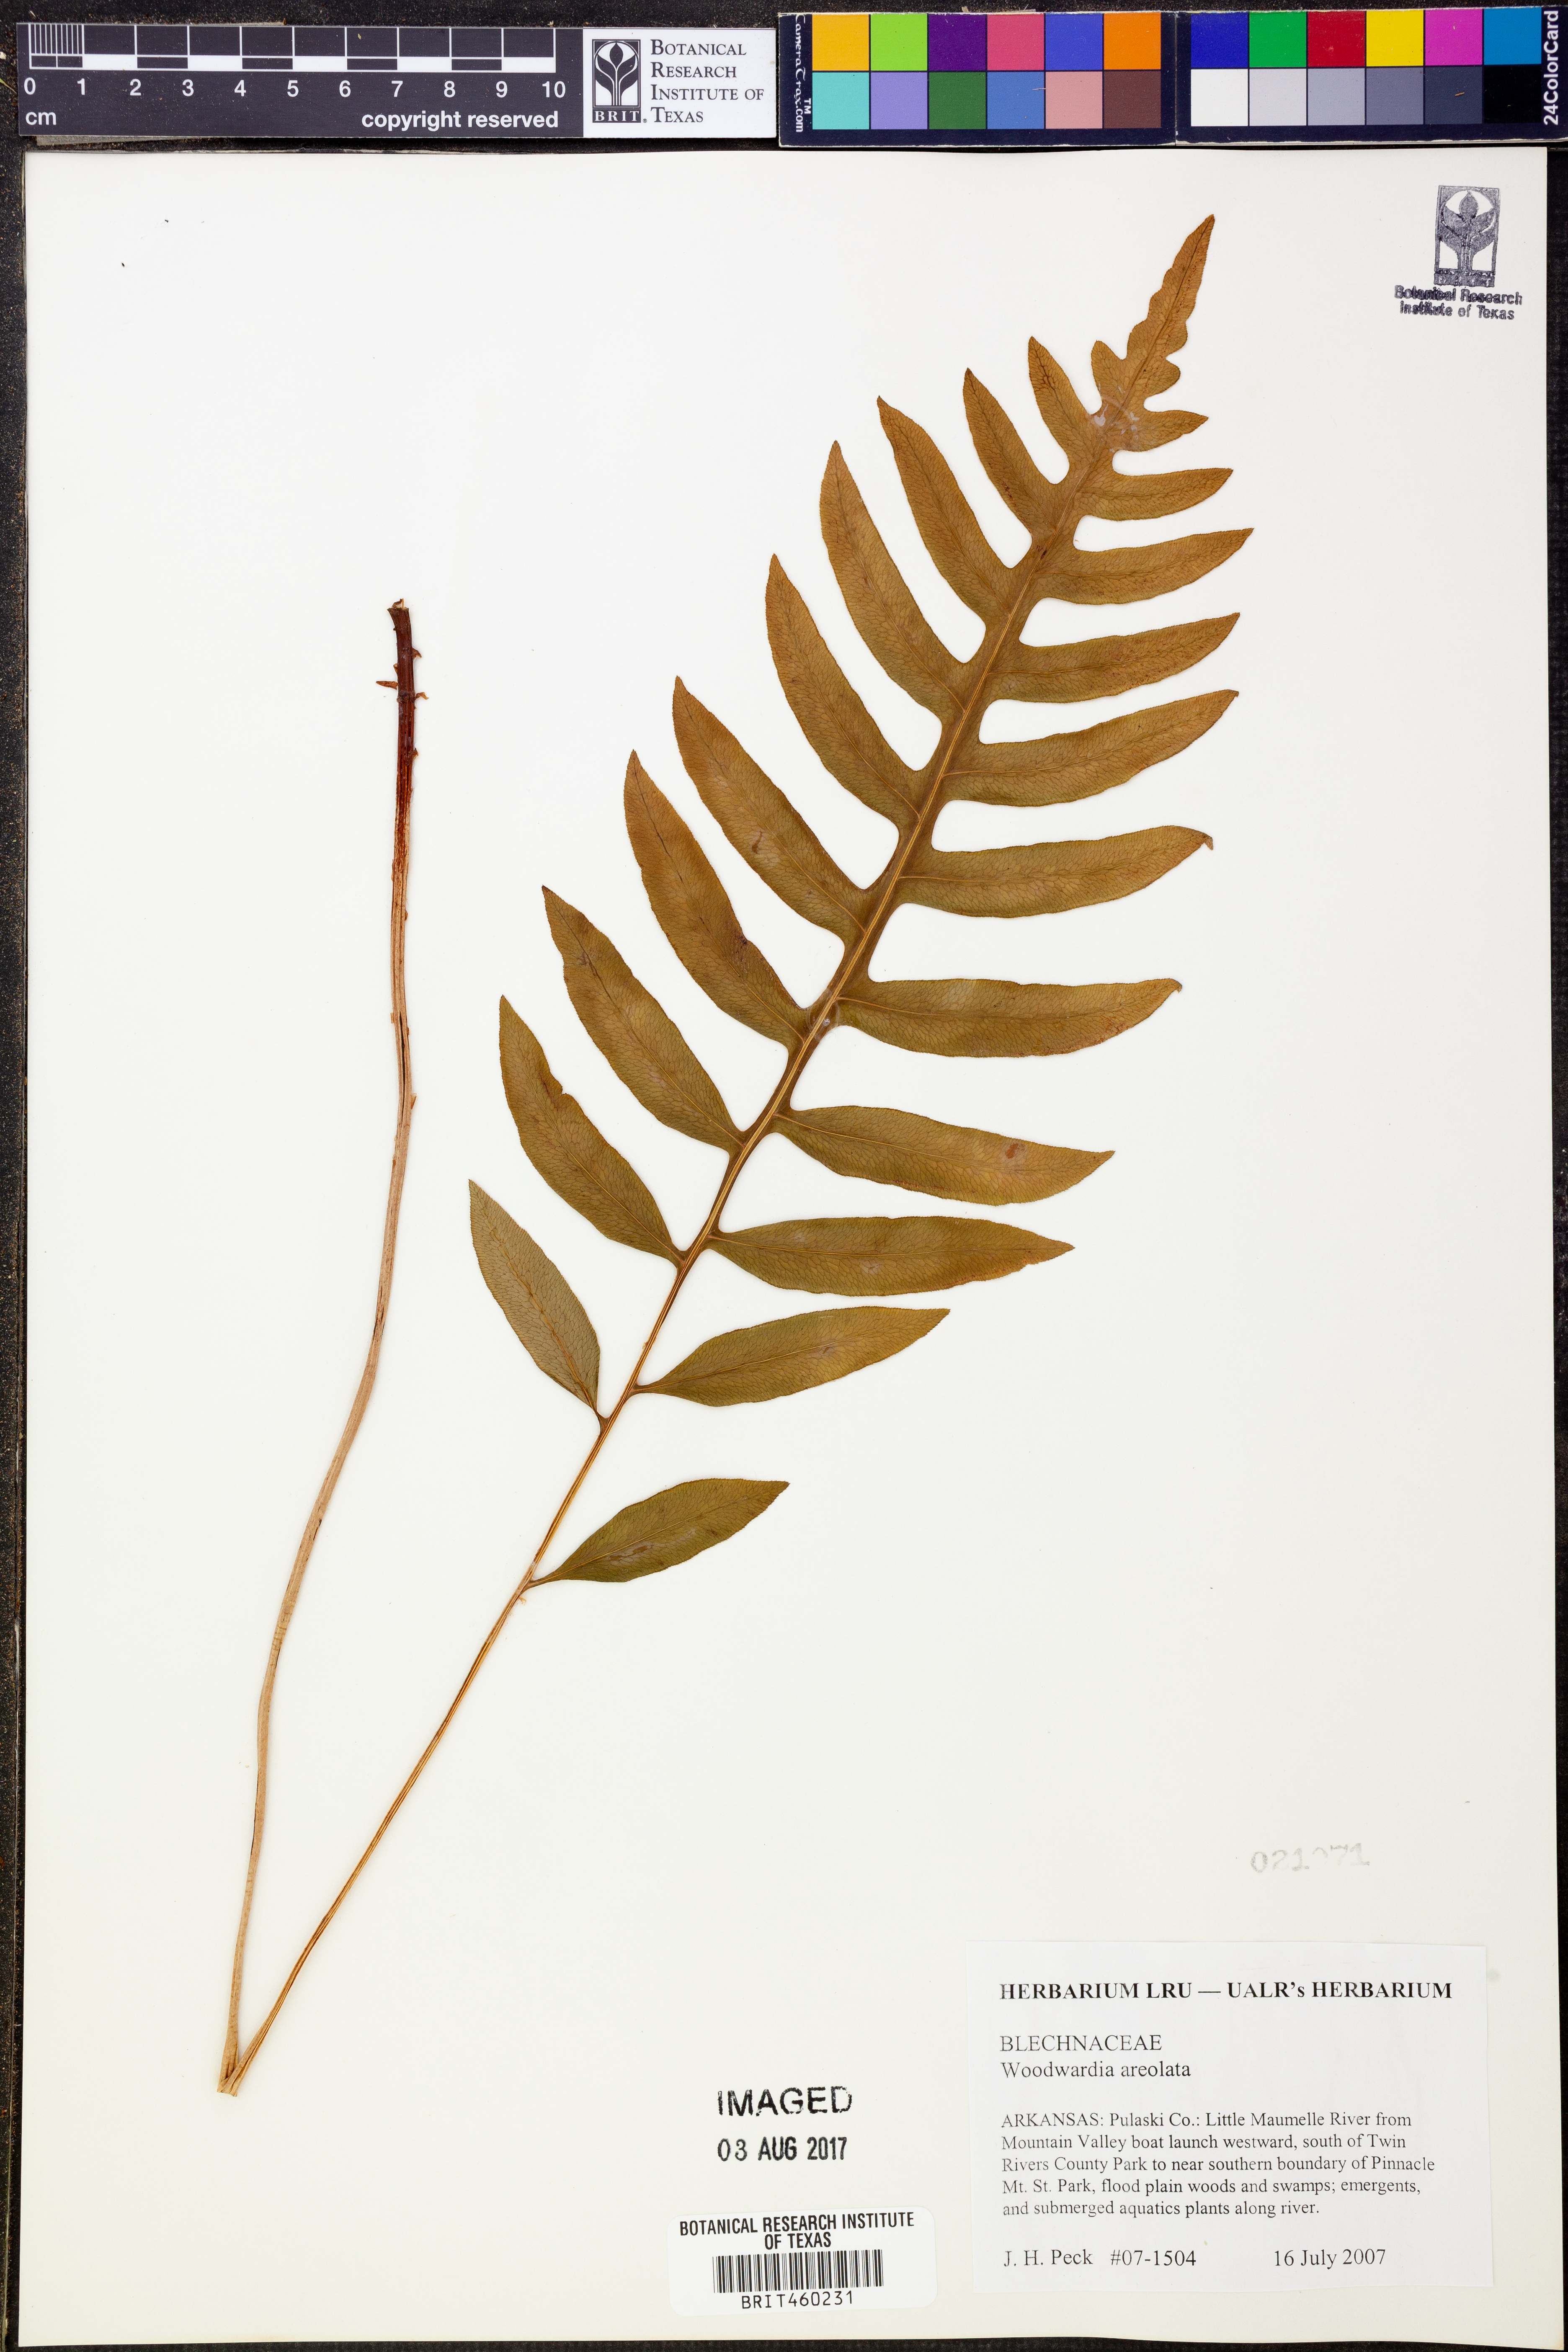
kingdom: Plantae
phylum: Tracheophyta
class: Polypodiopsida
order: Polypodiales
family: Blechnaceae
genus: Lorinseria
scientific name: Lorinseria areolata
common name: Dwarf chain fern
